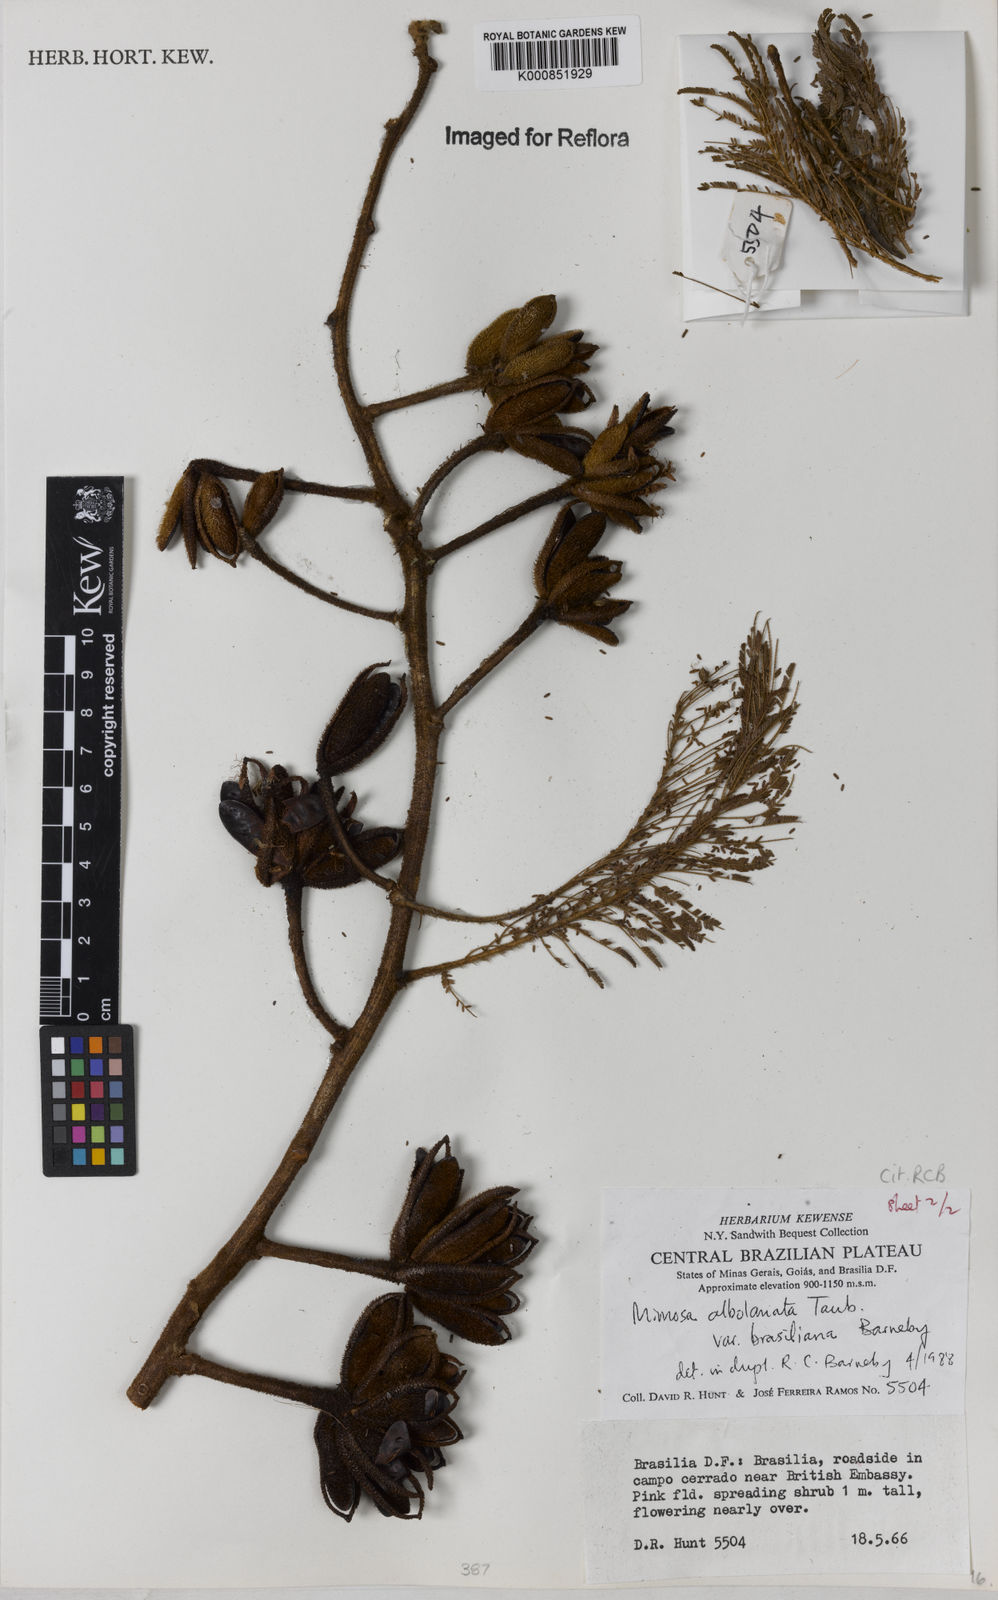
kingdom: Plantae
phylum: Tracheophyta
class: Magnoliopsida
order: Fabales
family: Fabaceae
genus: Mimosa
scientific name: Mimosa albolanata
